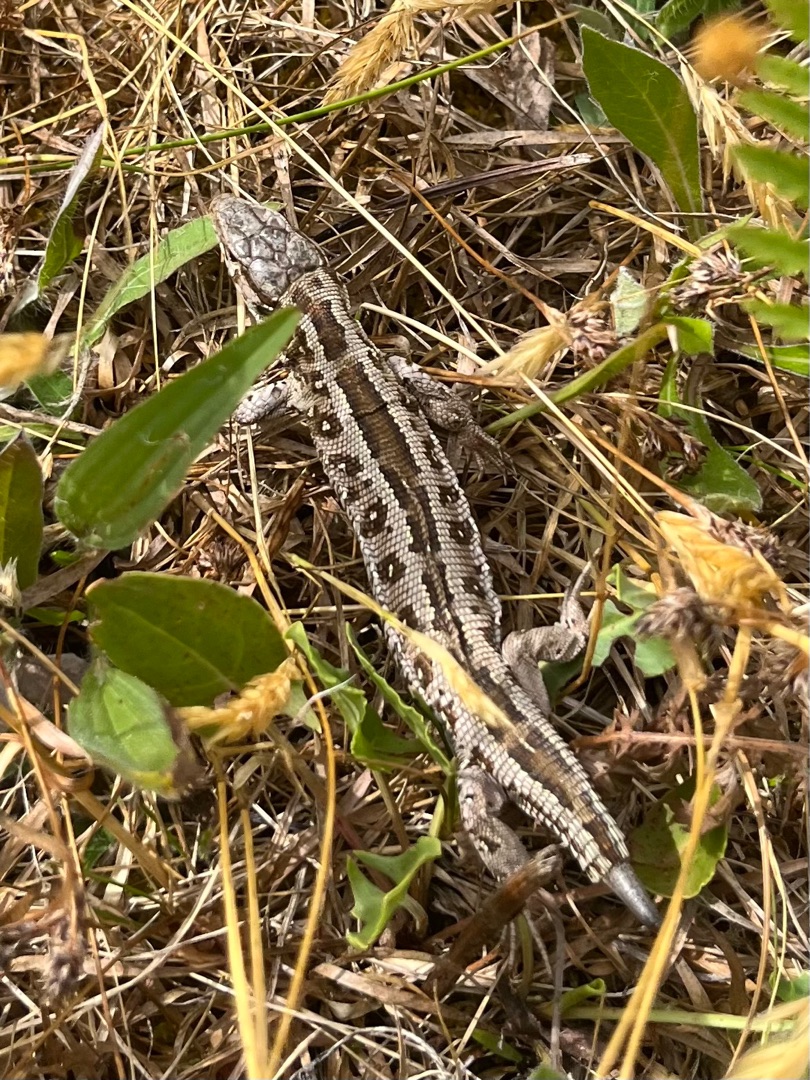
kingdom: Animalia
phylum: Chordata
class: Squamata
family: Lacertidae
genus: Lacerta
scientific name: Lacerta agilis
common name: Markfirben
